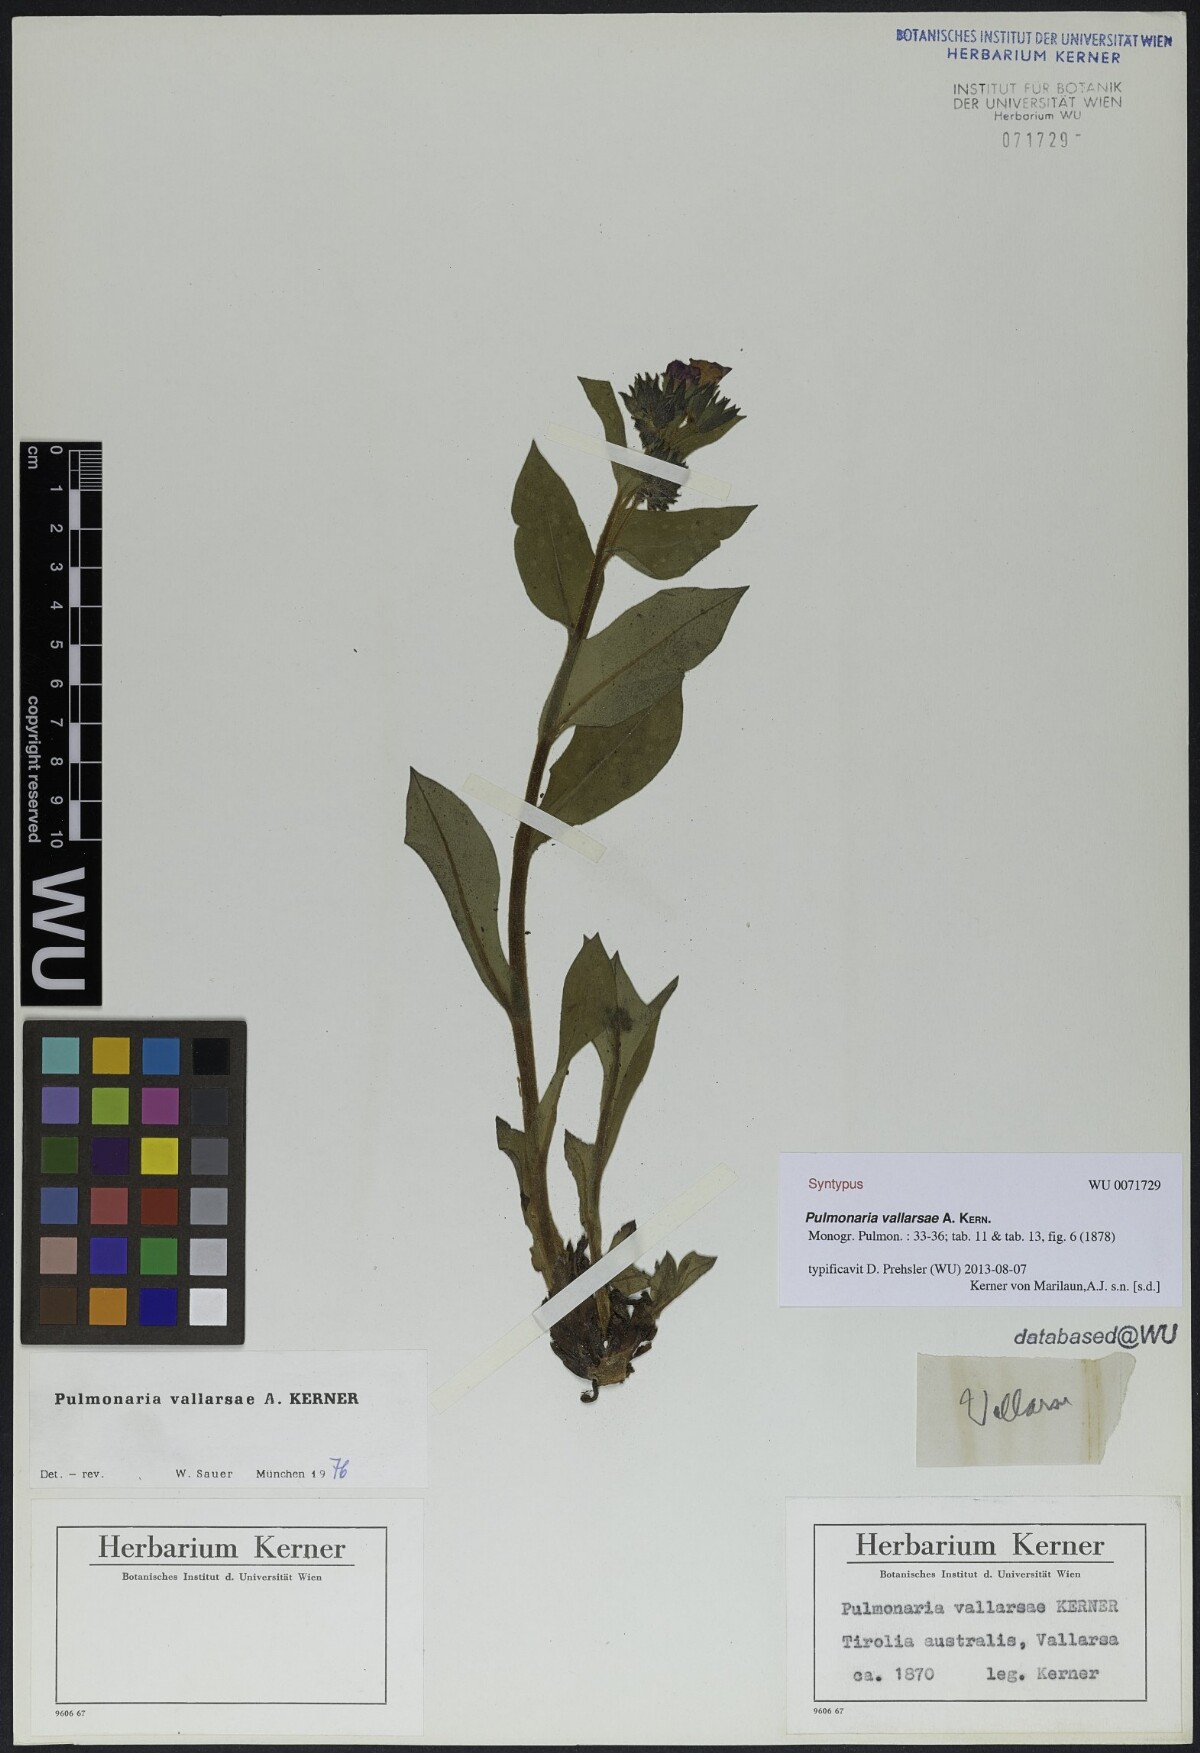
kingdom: Plantae
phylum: Tracheophyta
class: Magnoliopsida
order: Boraginales
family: Boraginaceae
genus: Pulmonaria
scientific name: Pulmonaria hirta
